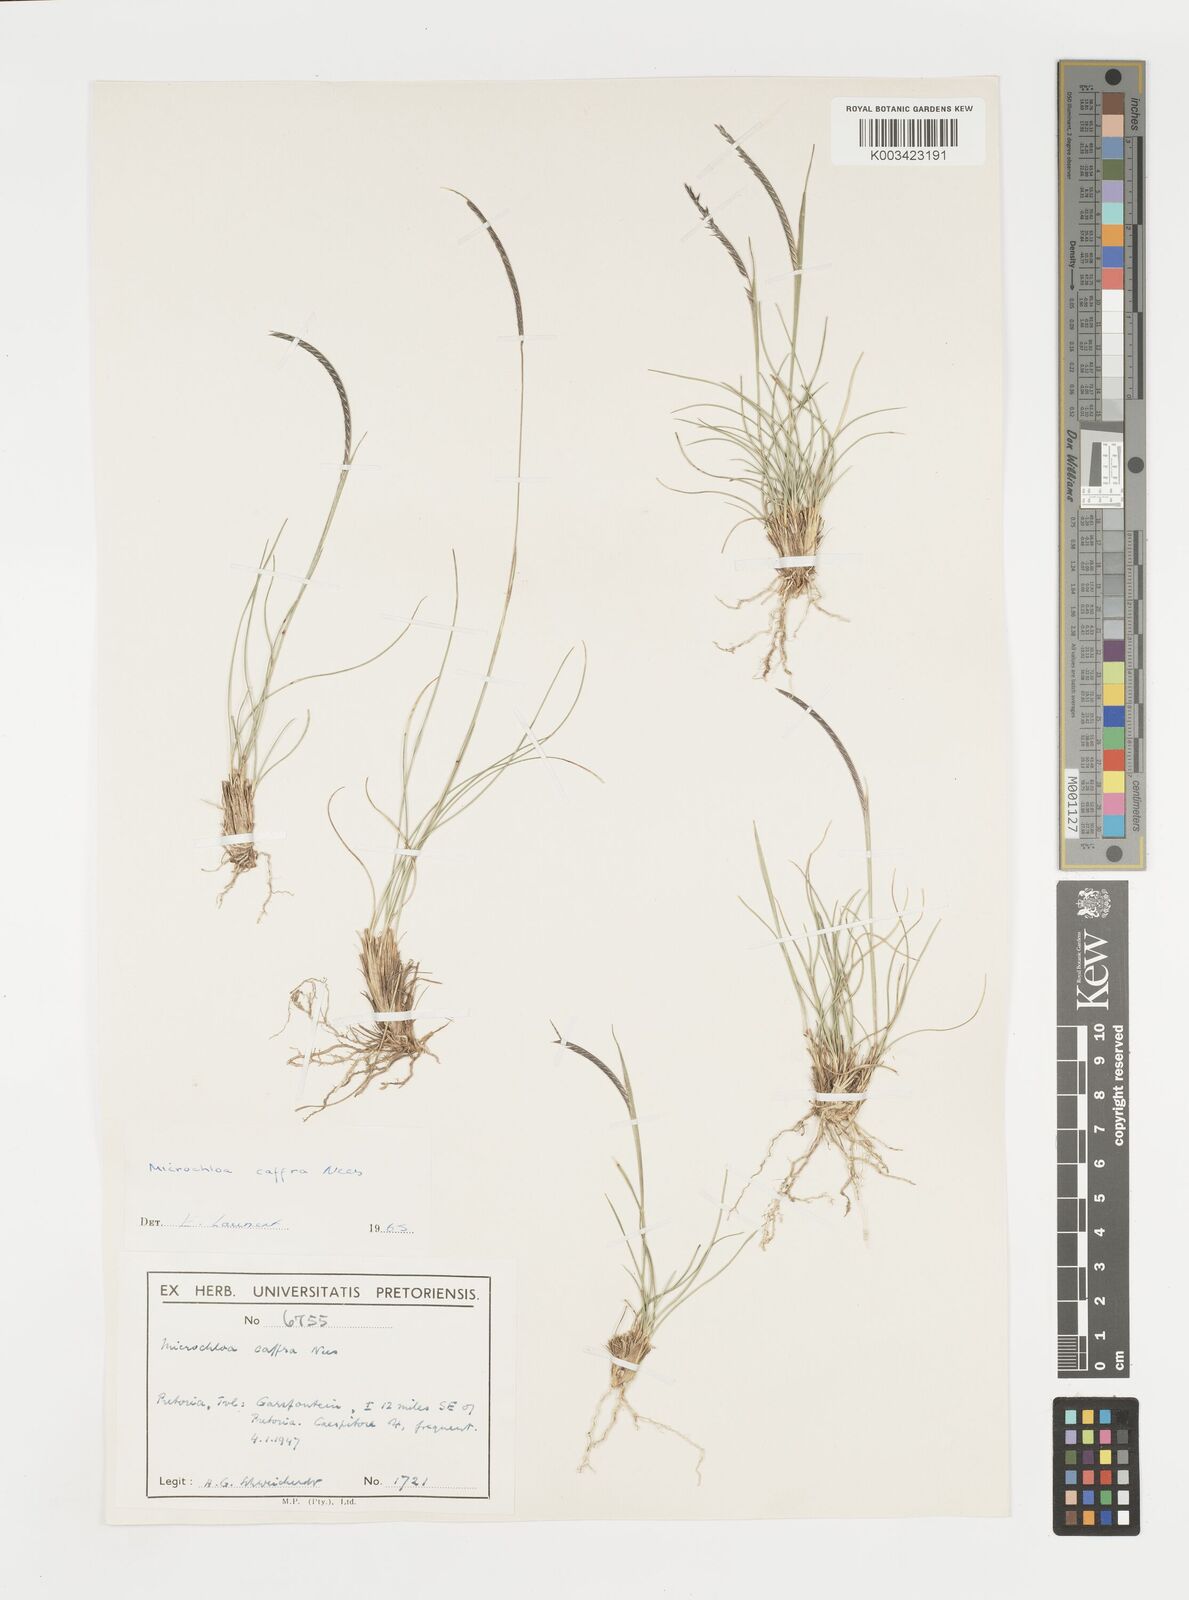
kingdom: Plantae
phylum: Tracheophyta
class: Liliopsida
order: Poales
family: Poaceae
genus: Microchloa
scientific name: Microchloa caffra
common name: Pincushion grass
